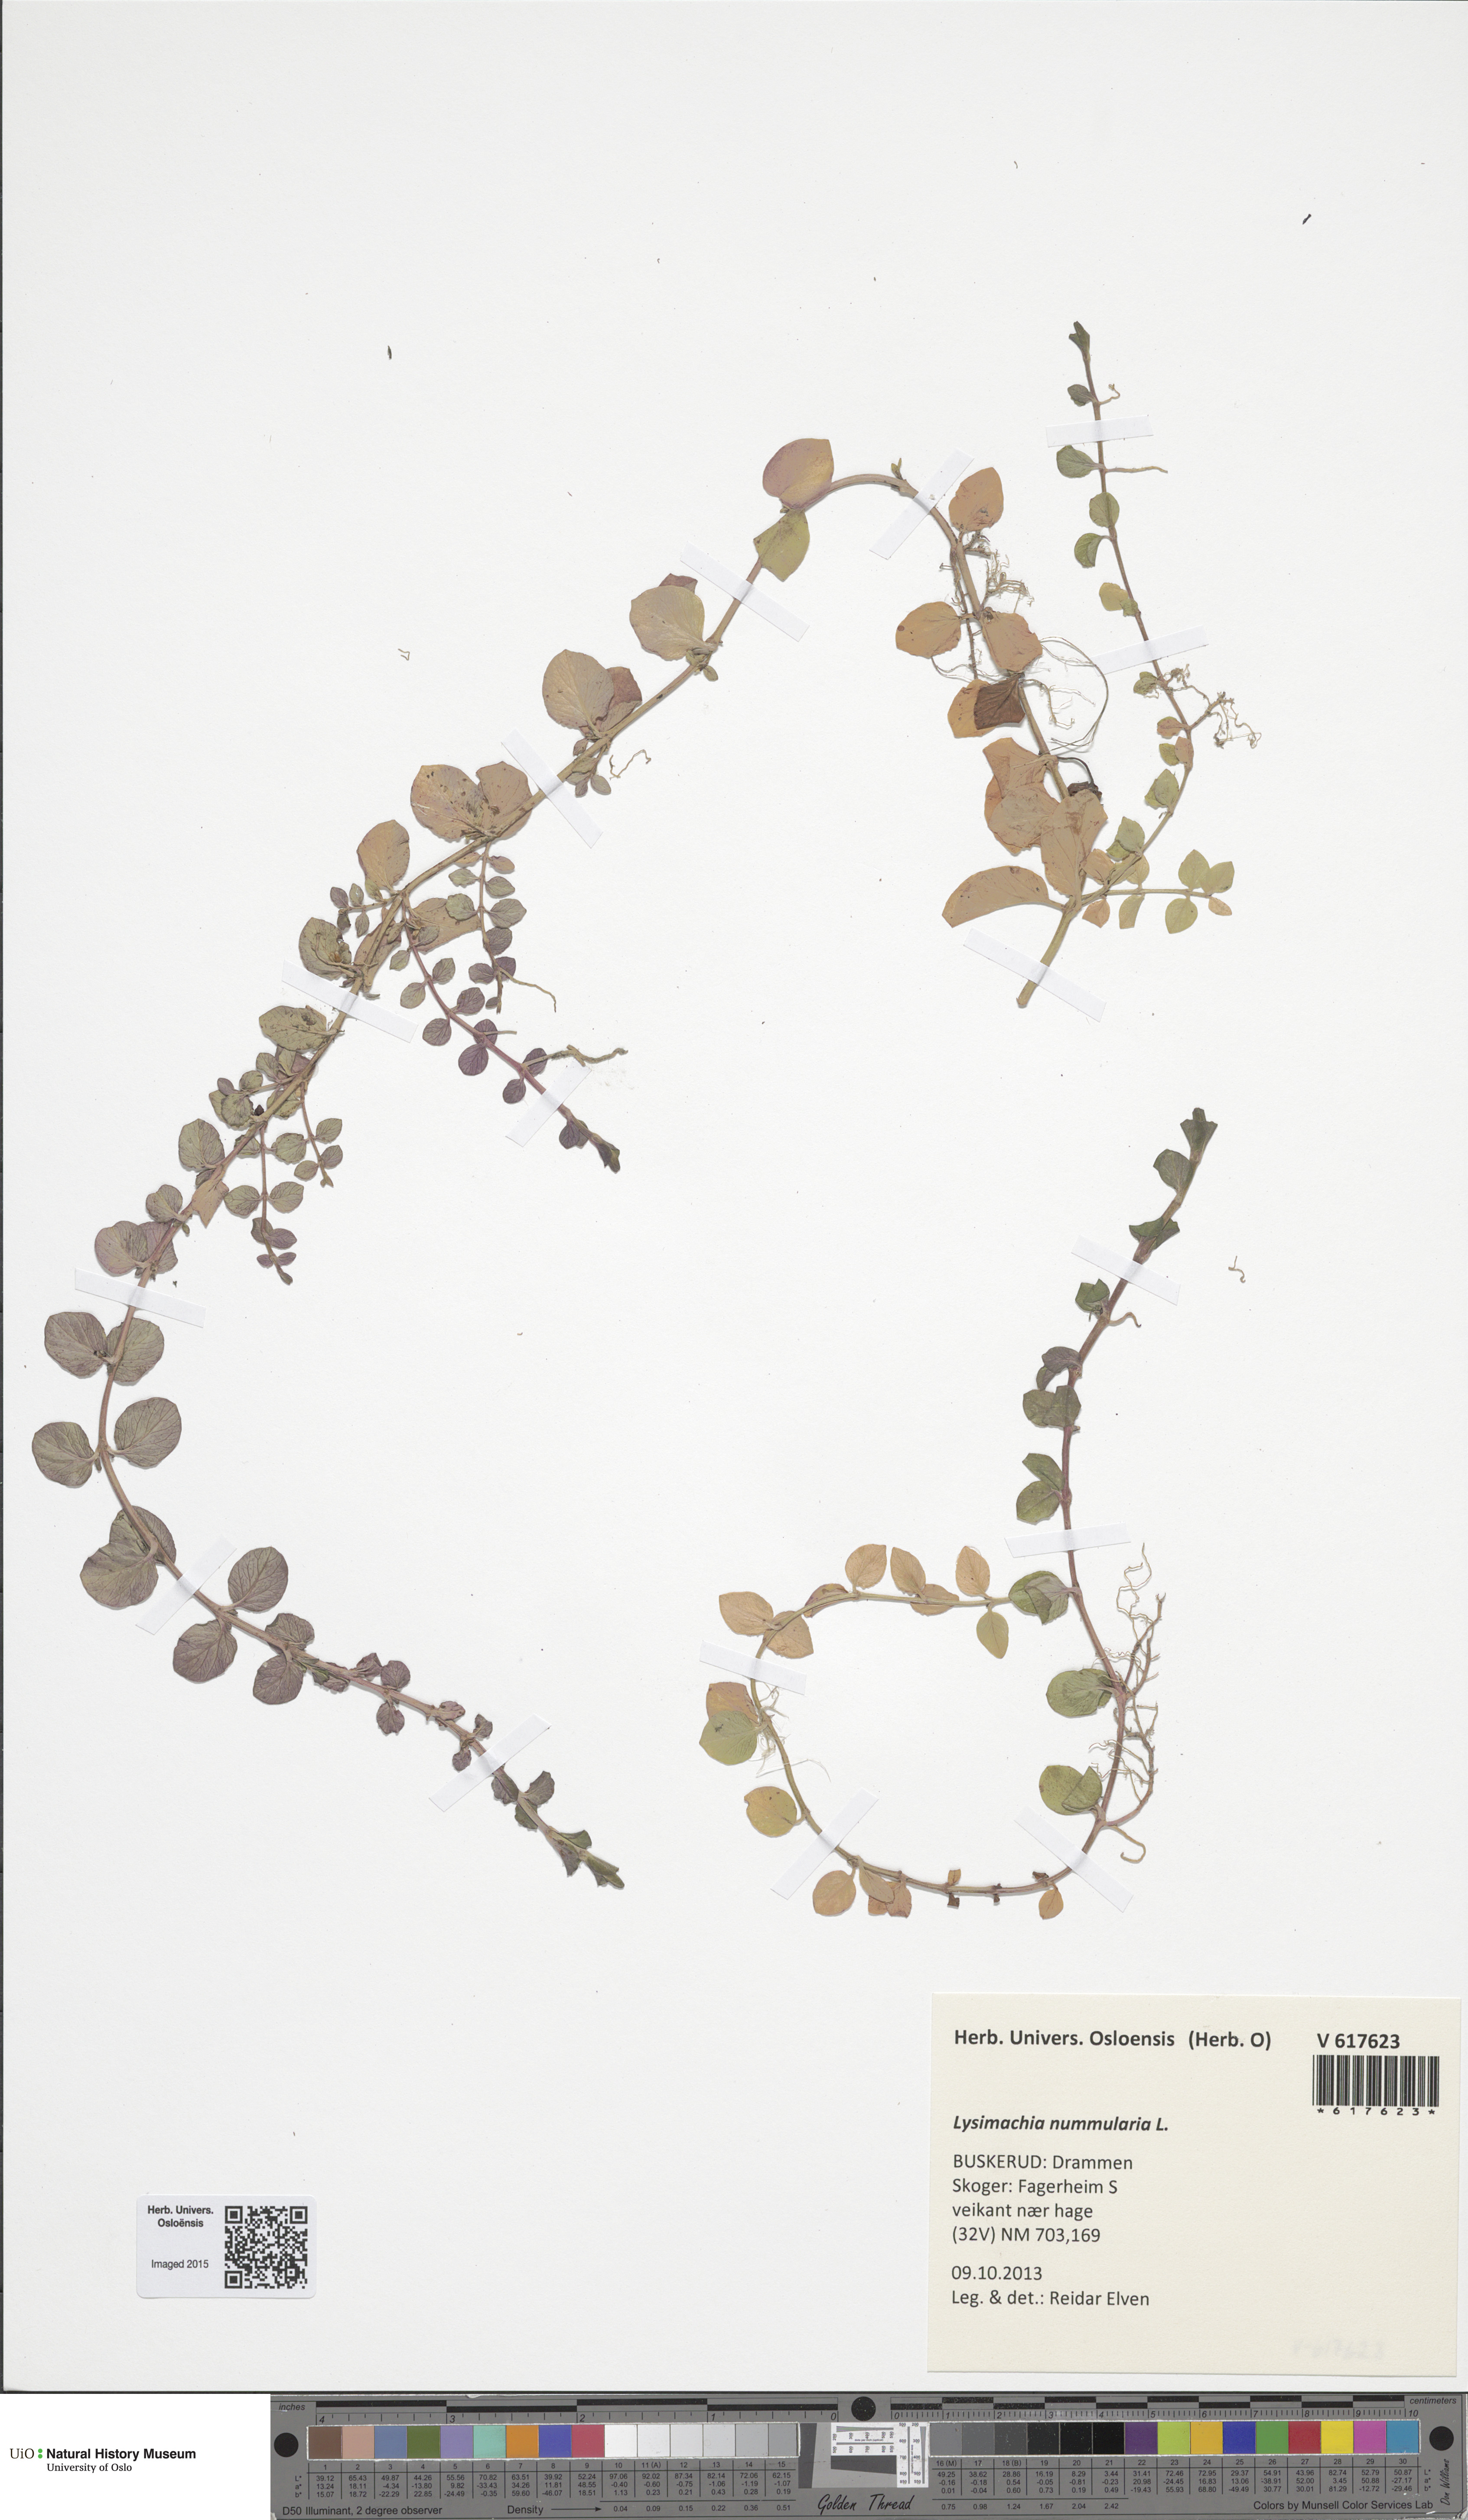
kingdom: Plantae
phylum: Tracheophyta
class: Magnoliopsida
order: Ericales
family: Primulaceae
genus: Lysimachia
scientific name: Lysimachia nummularia
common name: Moneywort
